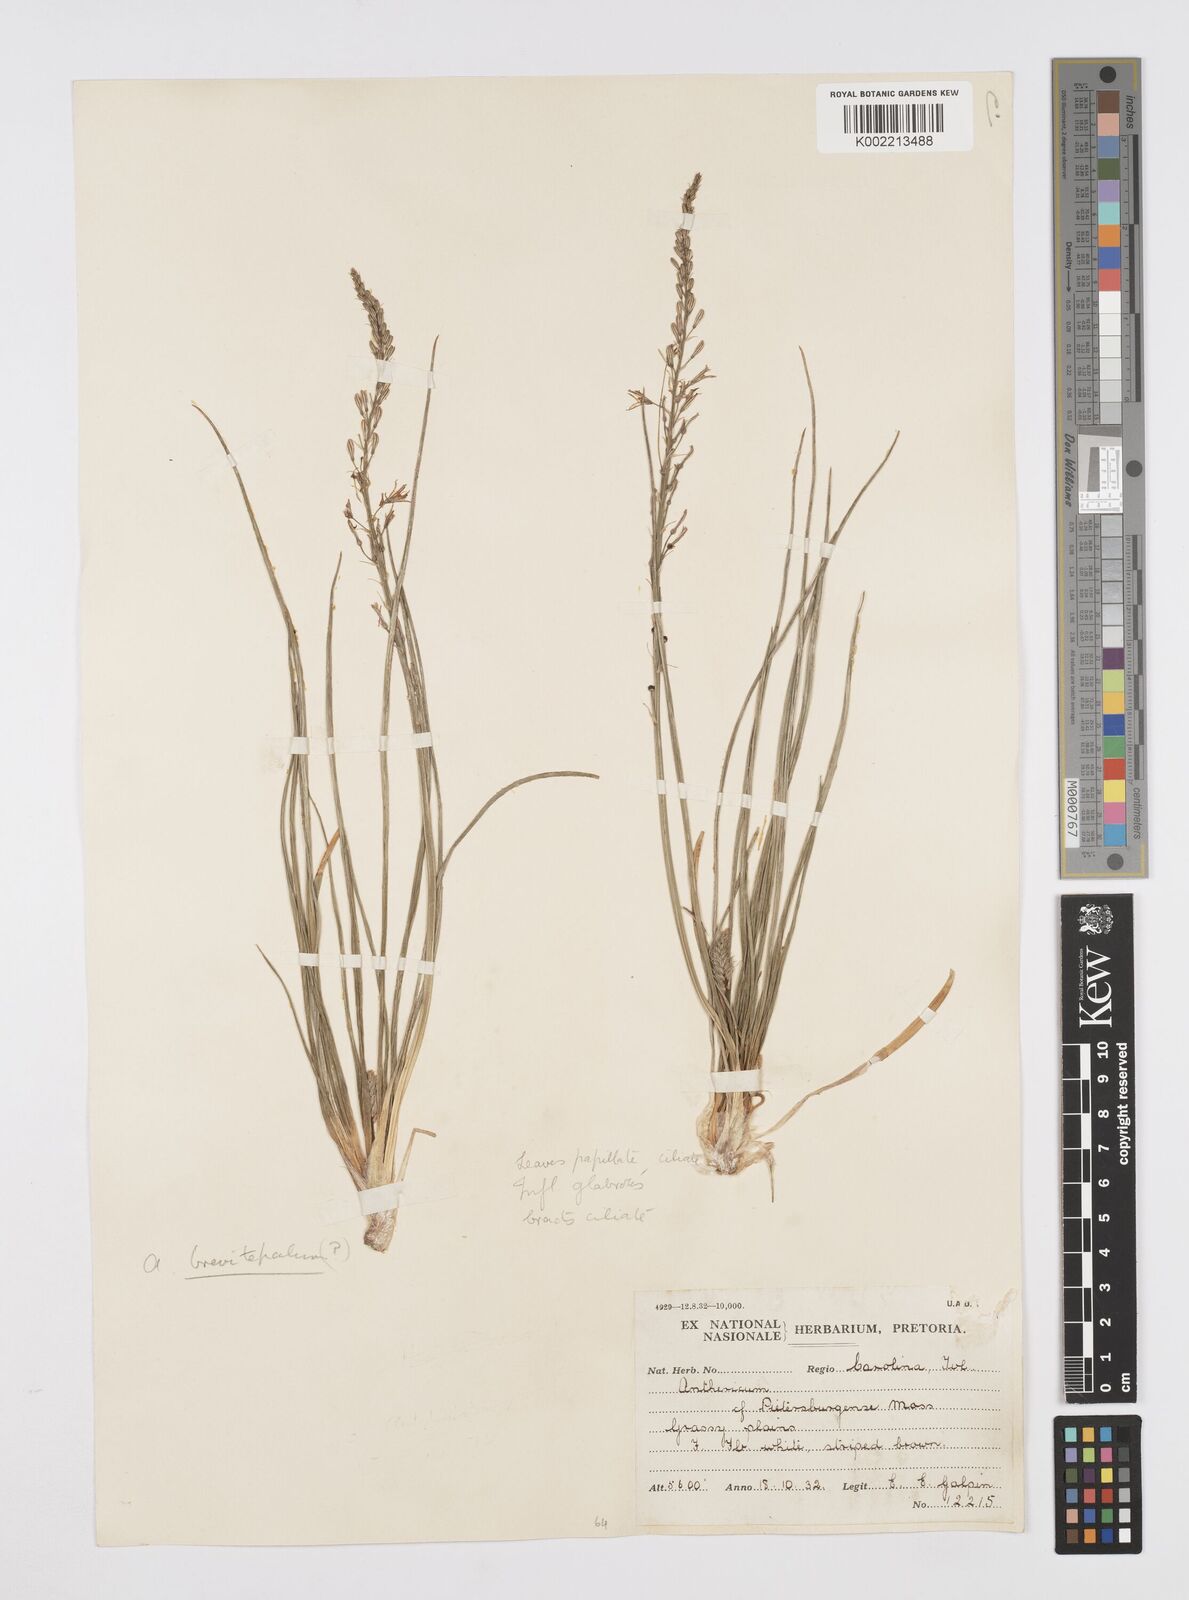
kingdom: Plantae
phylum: Tracheophyta
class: Liliopsida
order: Asparagales
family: Asphodelaceae
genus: Trachyandra
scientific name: Trachyandra saltii
